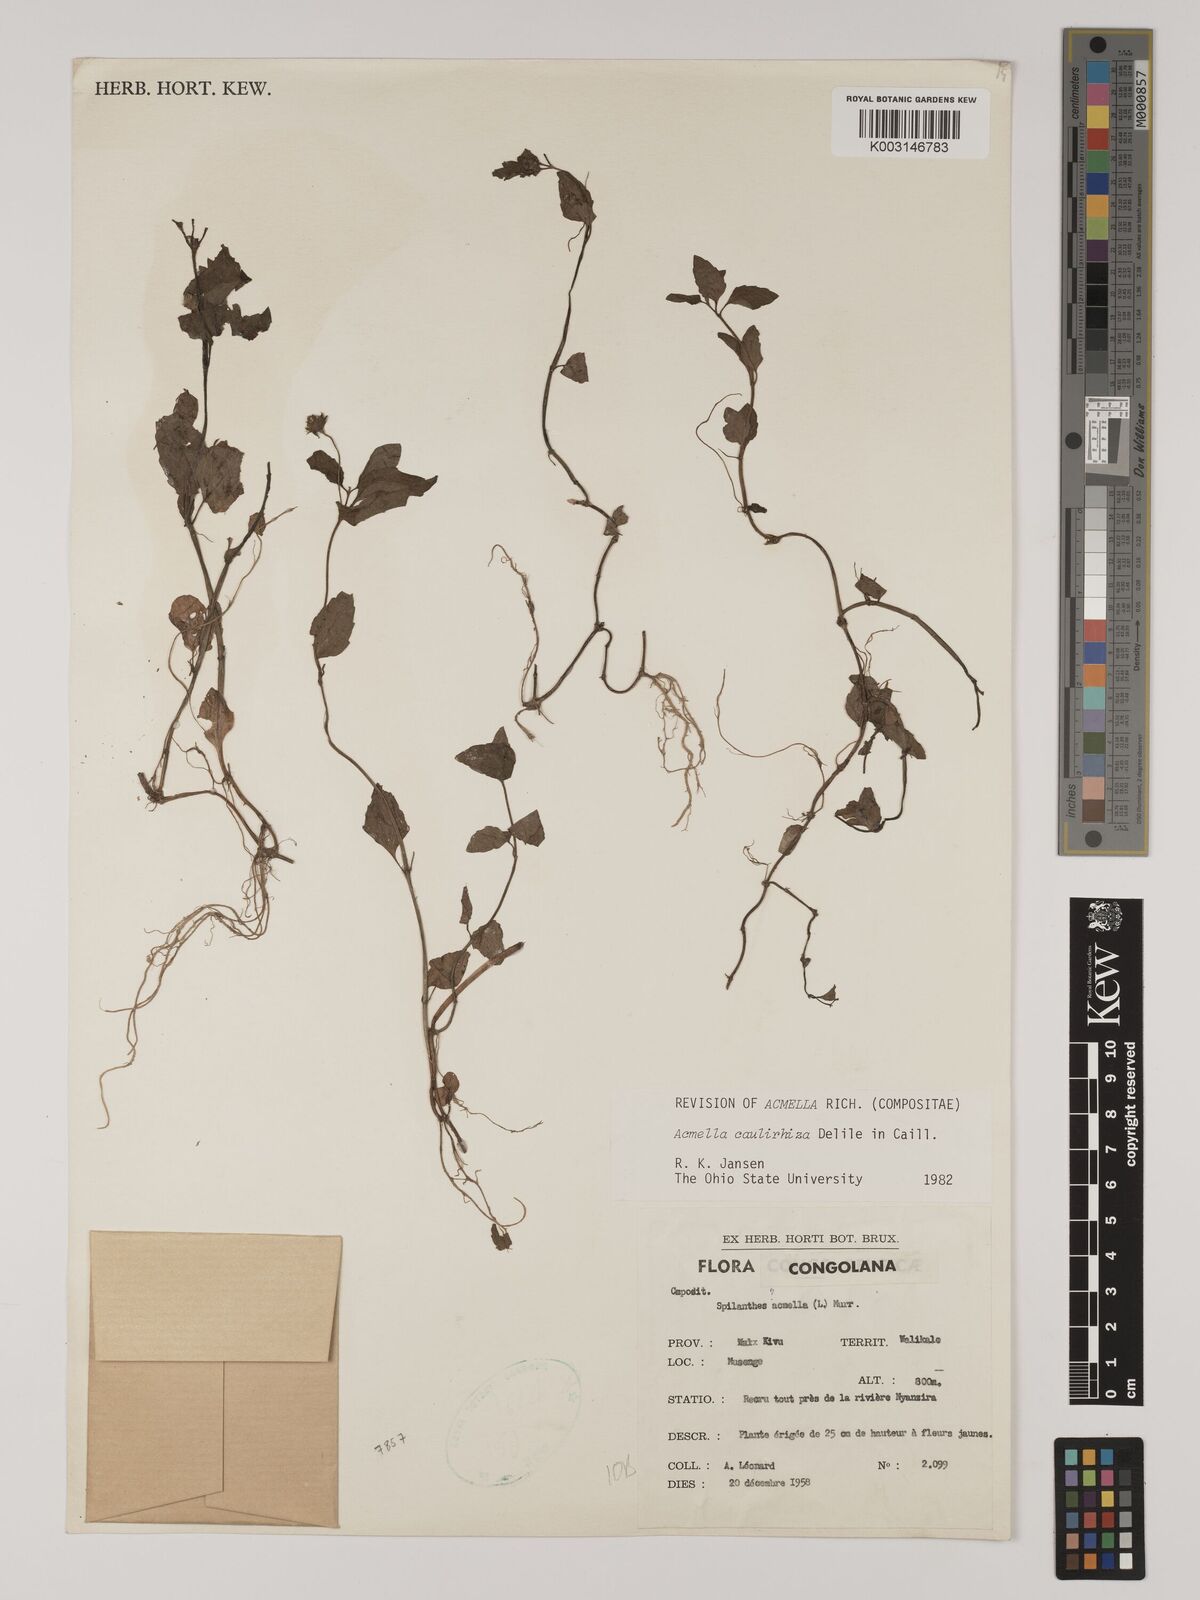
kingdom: Plantae
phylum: Tracheophyta
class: Magnoliopsida
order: Asterales
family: Asteraceae
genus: Acmella
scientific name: Acmella caulirhiza
